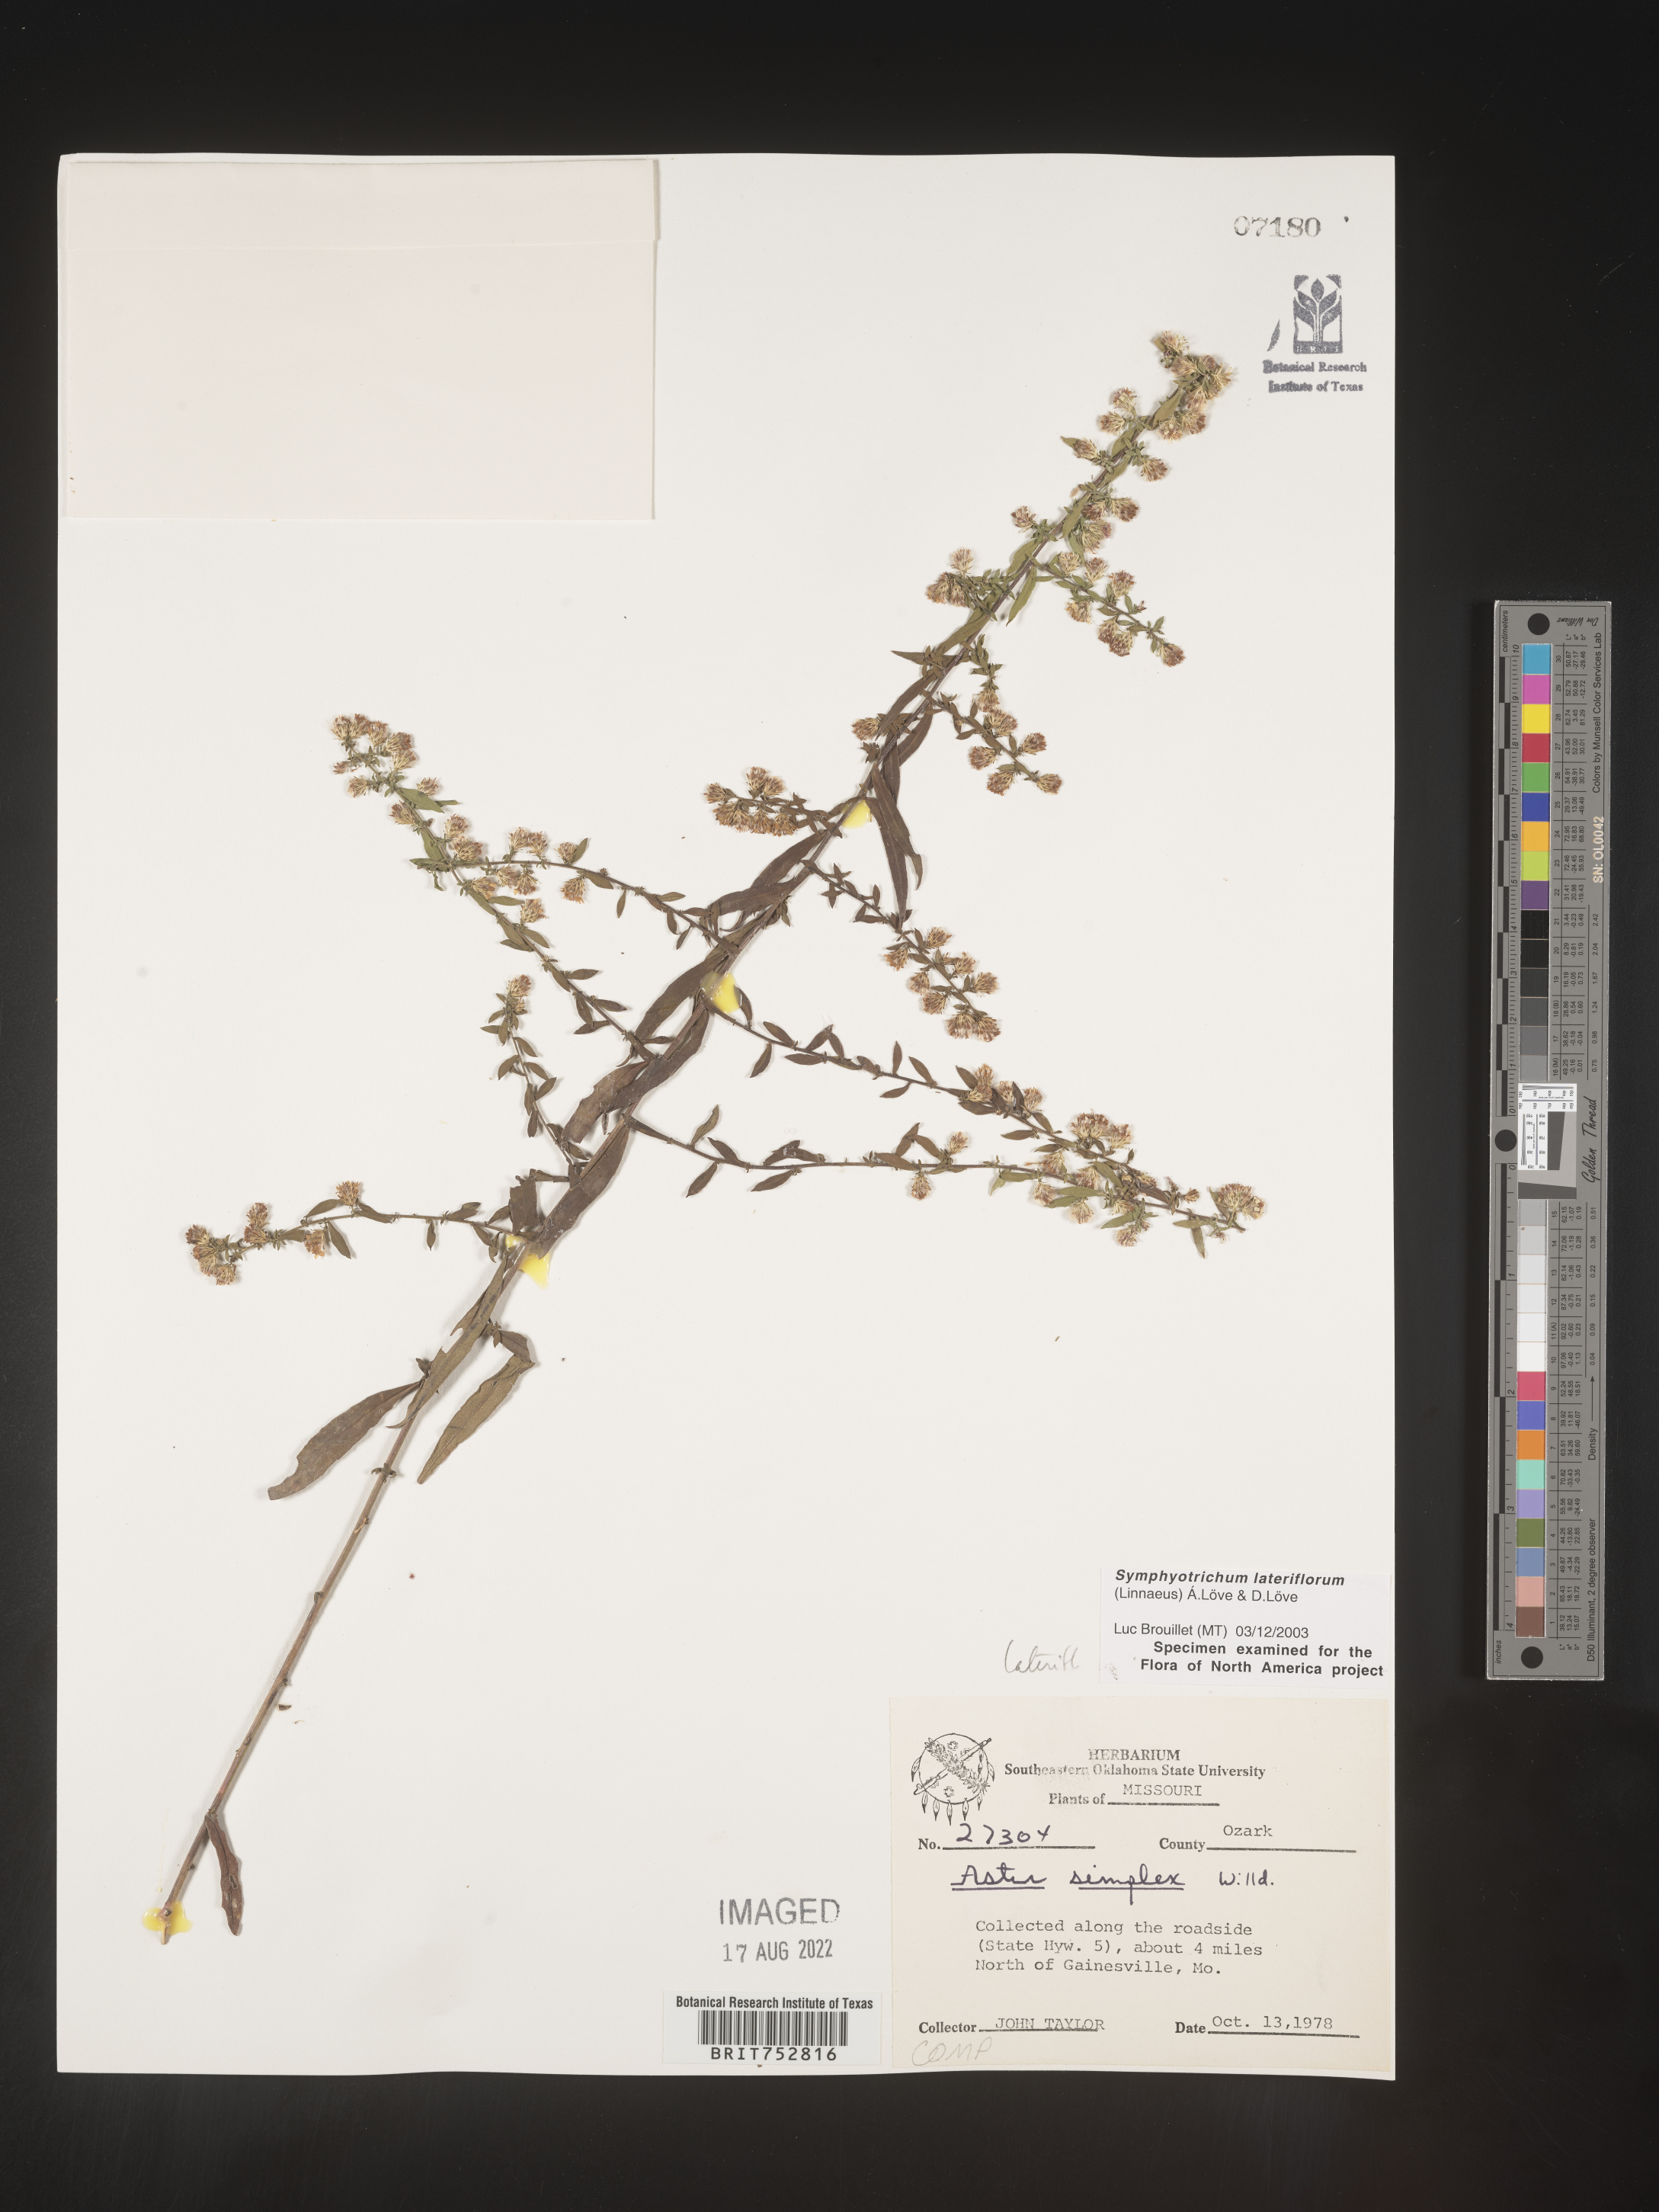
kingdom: Plantae
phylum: Tracheophyta
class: Magnoliopsida
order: Asterales
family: Asteraceae
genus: Symphyotrichum
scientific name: Symphyotrichum lateriflorum
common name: Calico aster
